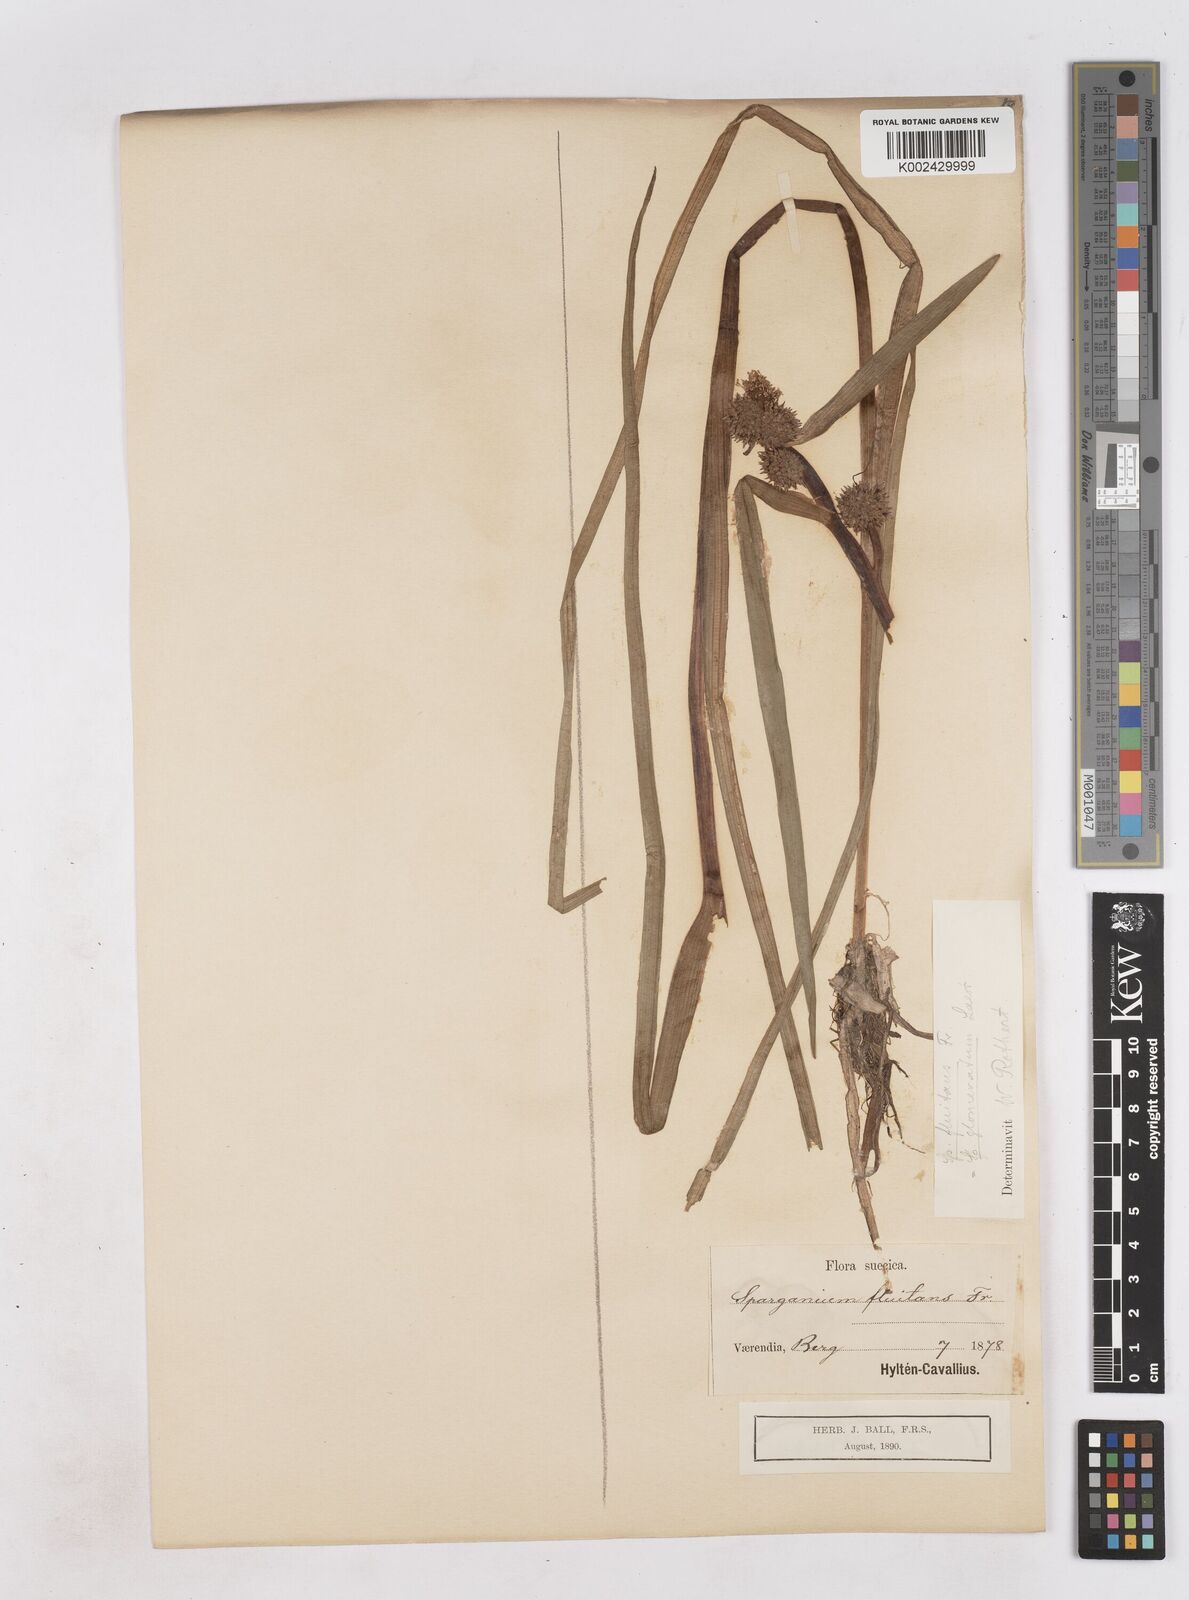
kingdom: Plantae
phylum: Tracheophyta
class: Liliopsida
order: Poales
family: Typhaceae
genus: Sparganium
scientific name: Sparganium angustifolium
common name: Floating bur-reed
